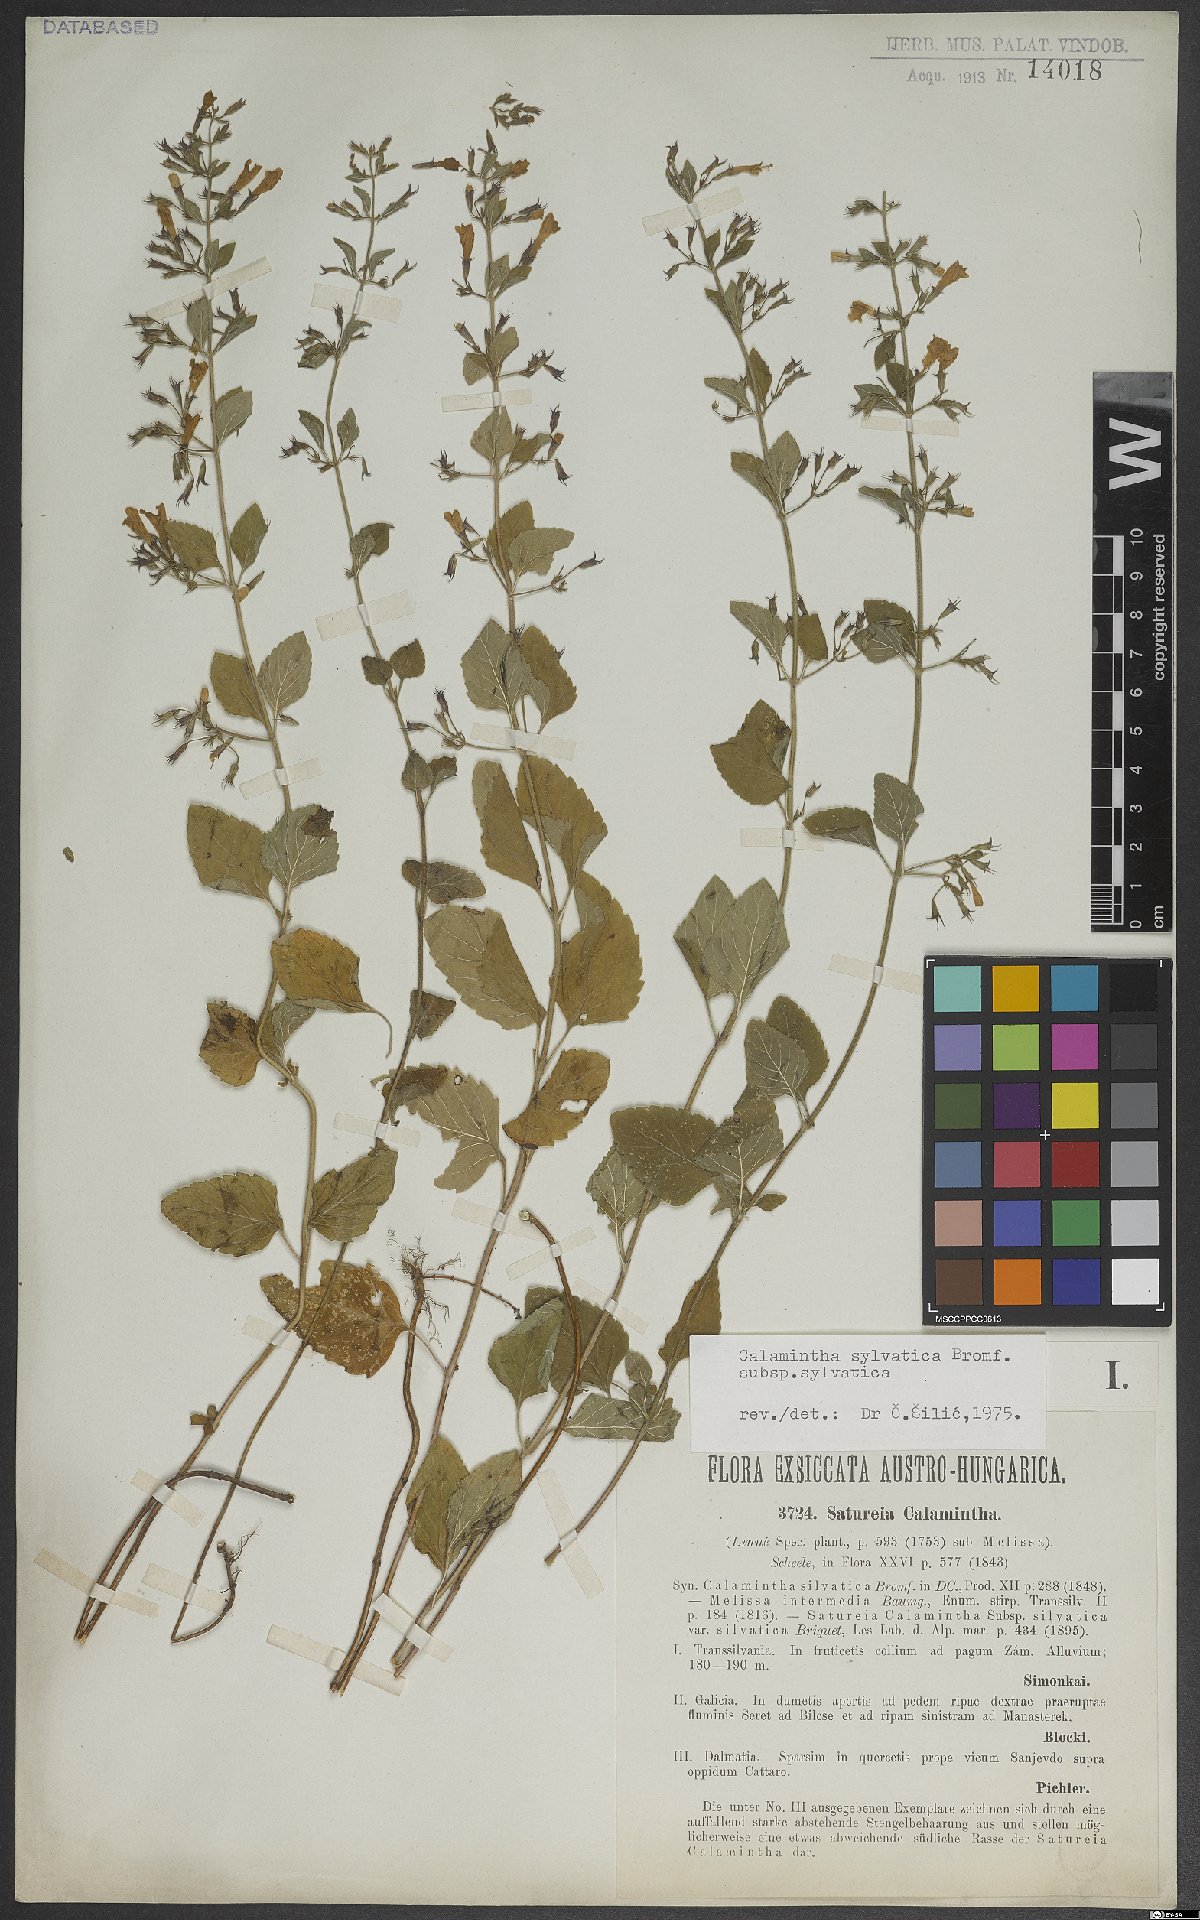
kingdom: Plantae
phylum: Tracheophyta
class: Magnoliopsida
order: Lamiales
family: Lamiaceae
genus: Clinopodium
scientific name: Clinopodium menthifolium
